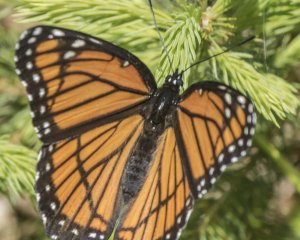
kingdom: Animalia
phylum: Arthropoda
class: Insecta
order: Lepidoptera
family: Nymphalidae
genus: Limenitis
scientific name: Limenitis archippus
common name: Viceroy
